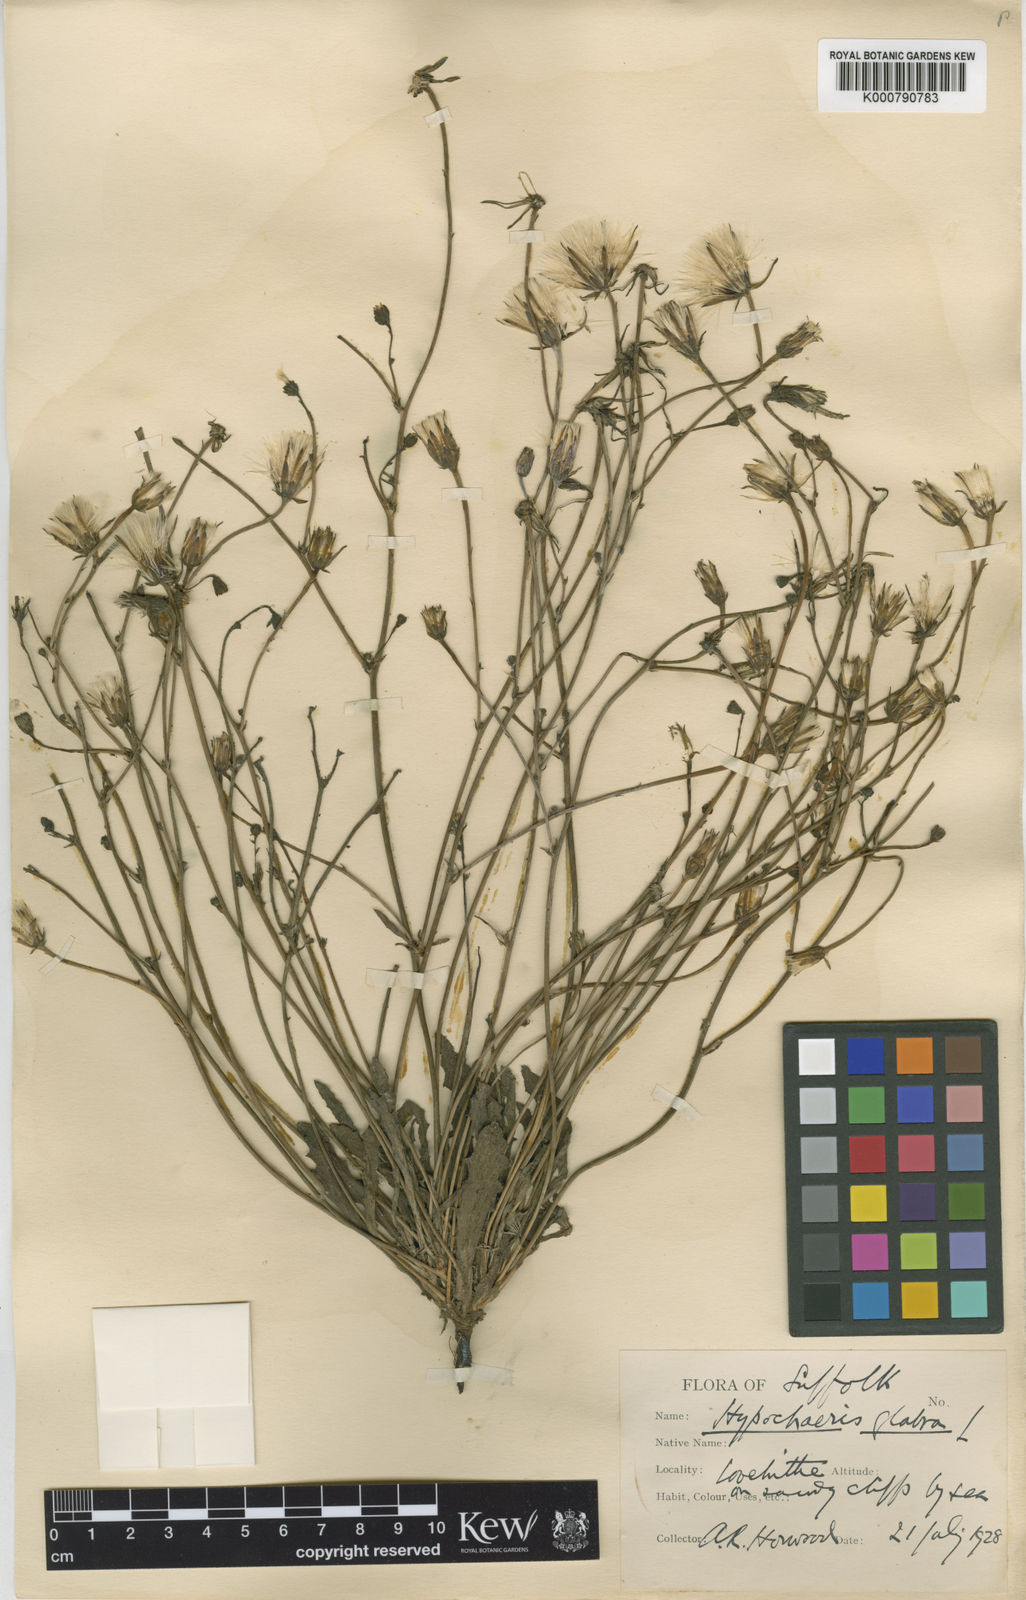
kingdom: Plantae
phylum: Tracheophyta
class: Magnoliopsida
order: Asterales
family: Asteraceae
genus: Hypochaeris
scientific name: Hypochaeris glabra
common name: Smooth catsear
